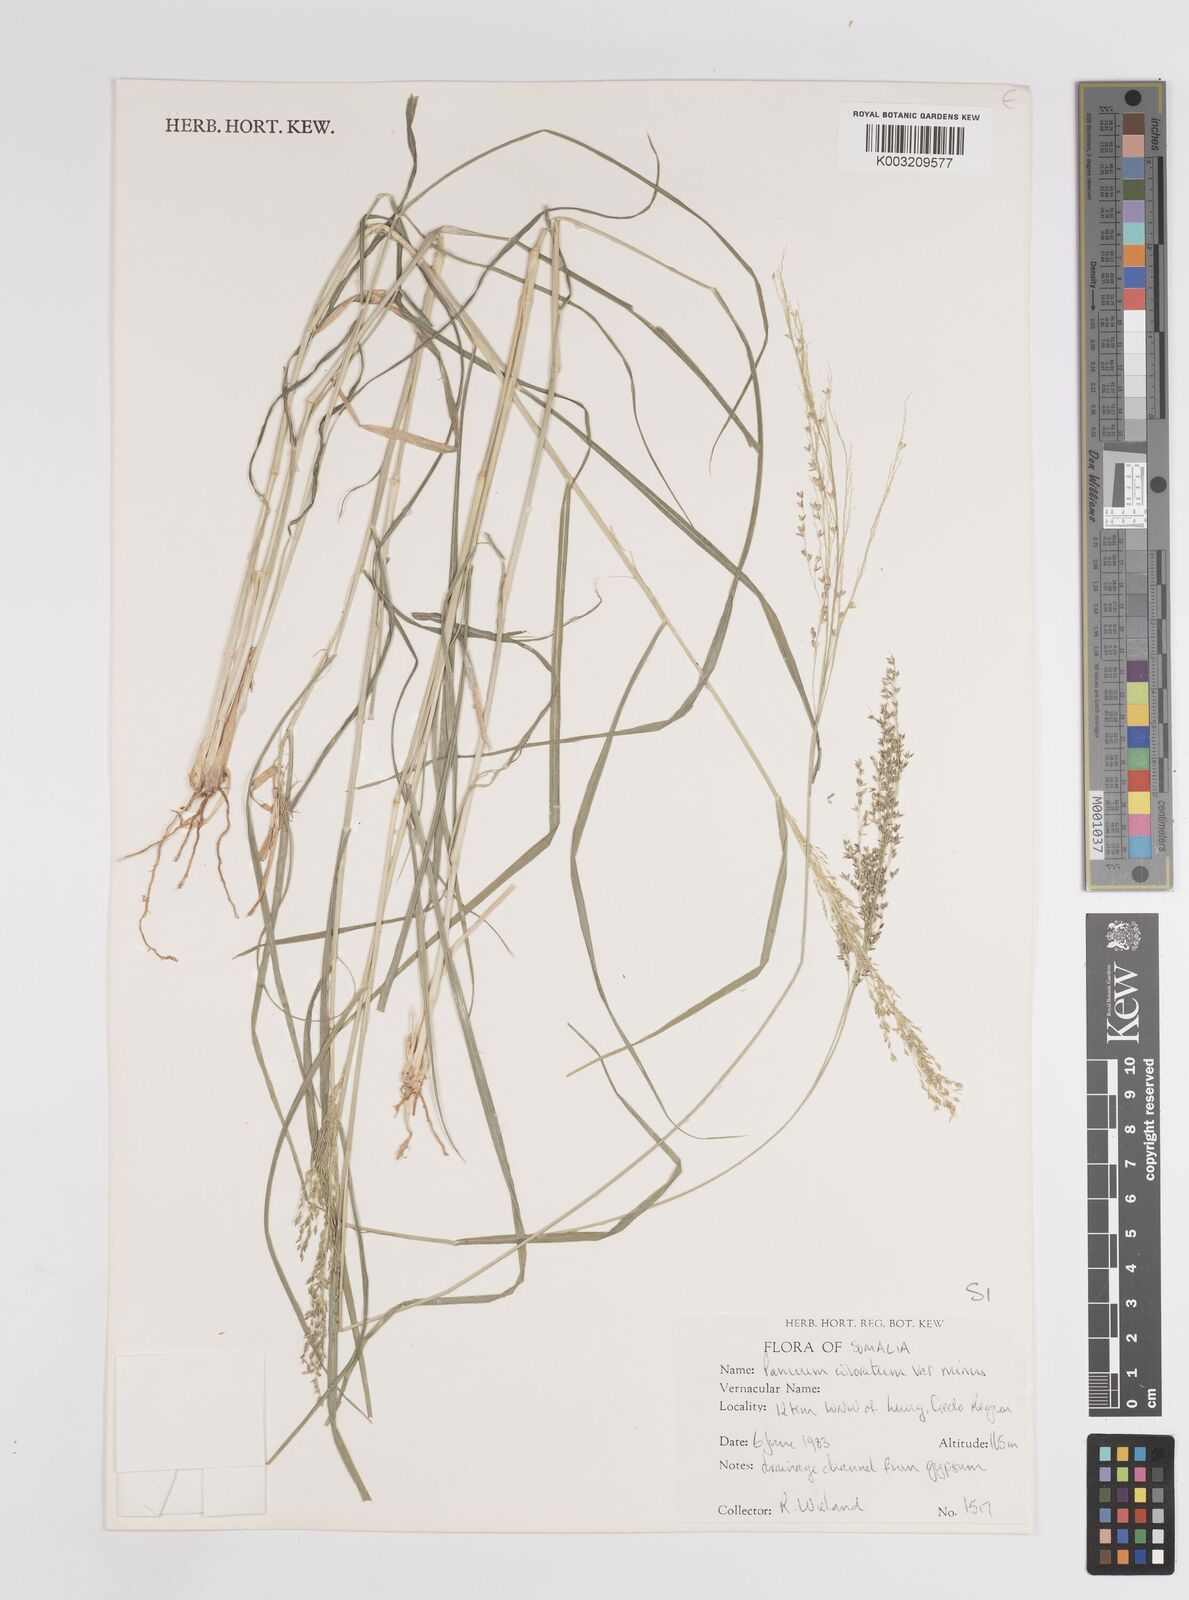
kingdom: Plantae
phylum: Tracheophyta
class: Liliopsida
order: Poales
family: Poaceae
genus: Panicum
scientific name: Panicum coloratum
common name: Kleingrass
